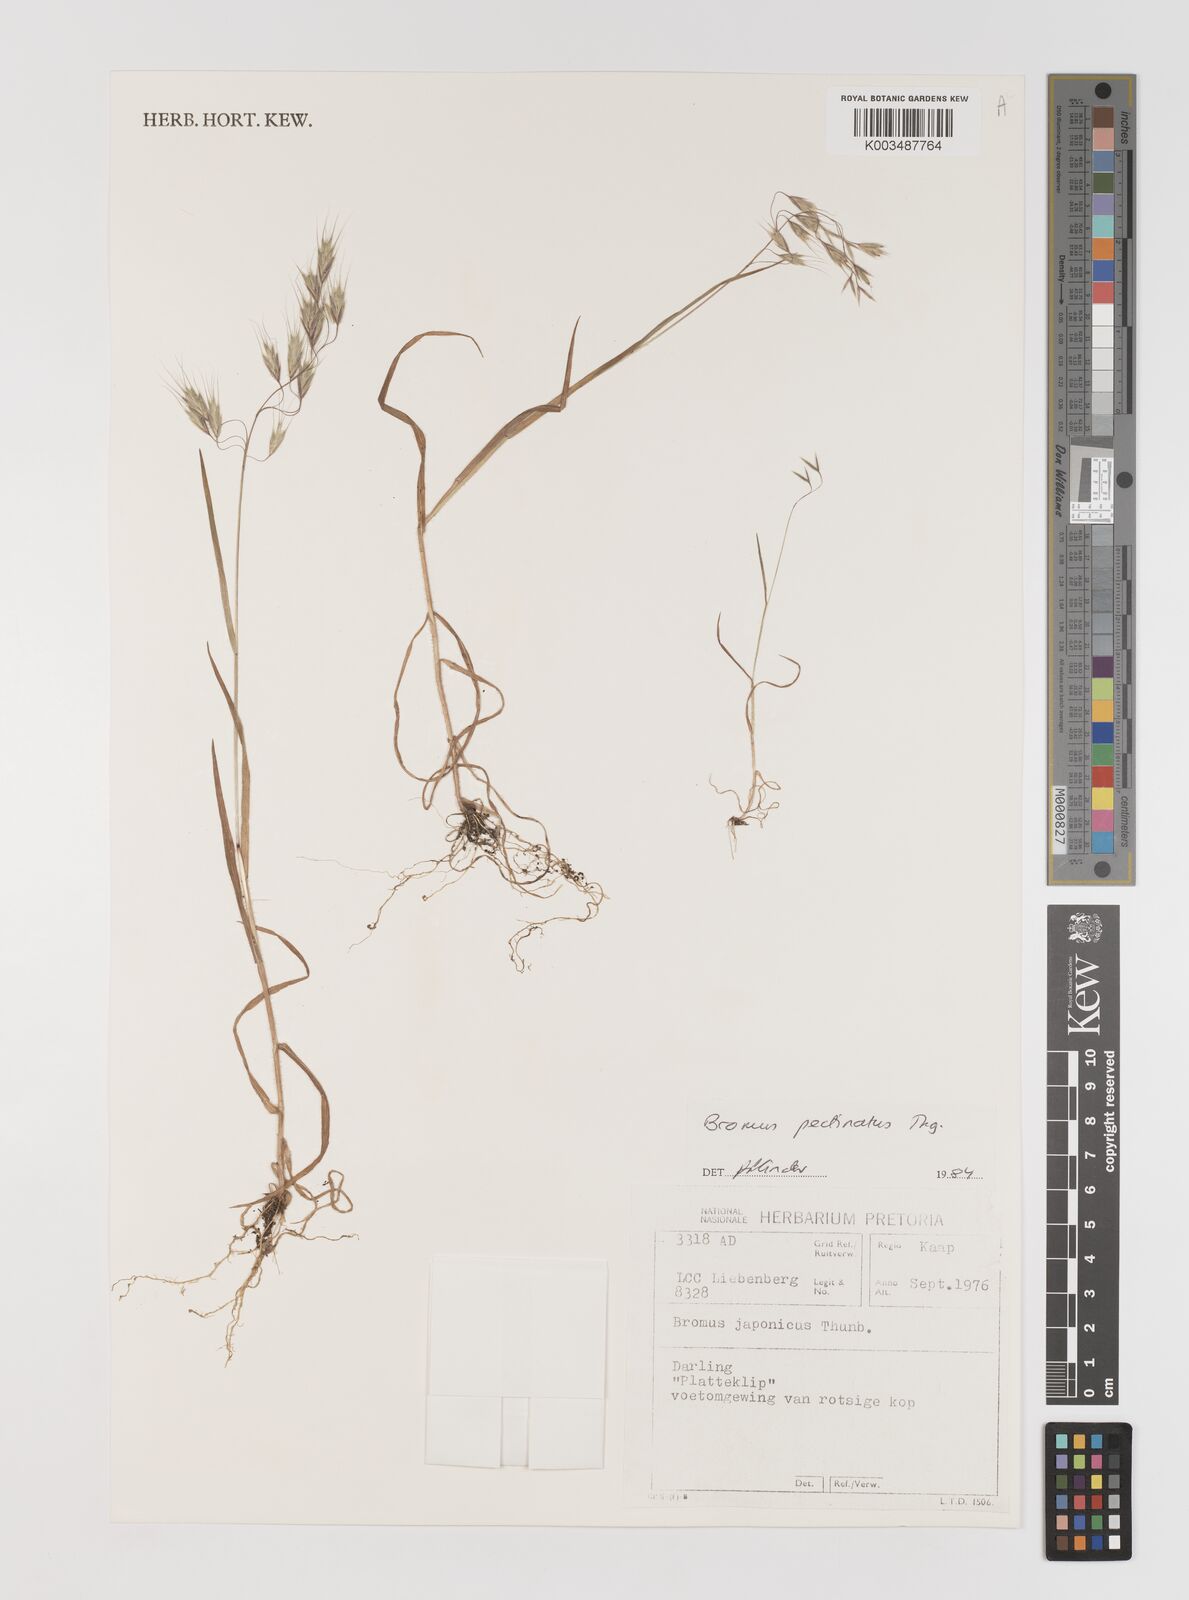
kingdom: Plantae
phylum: Tracheophyta
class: Liliopsida
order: Poales
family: Poaceae
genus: Bromus
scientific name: Bromus pectinatus
